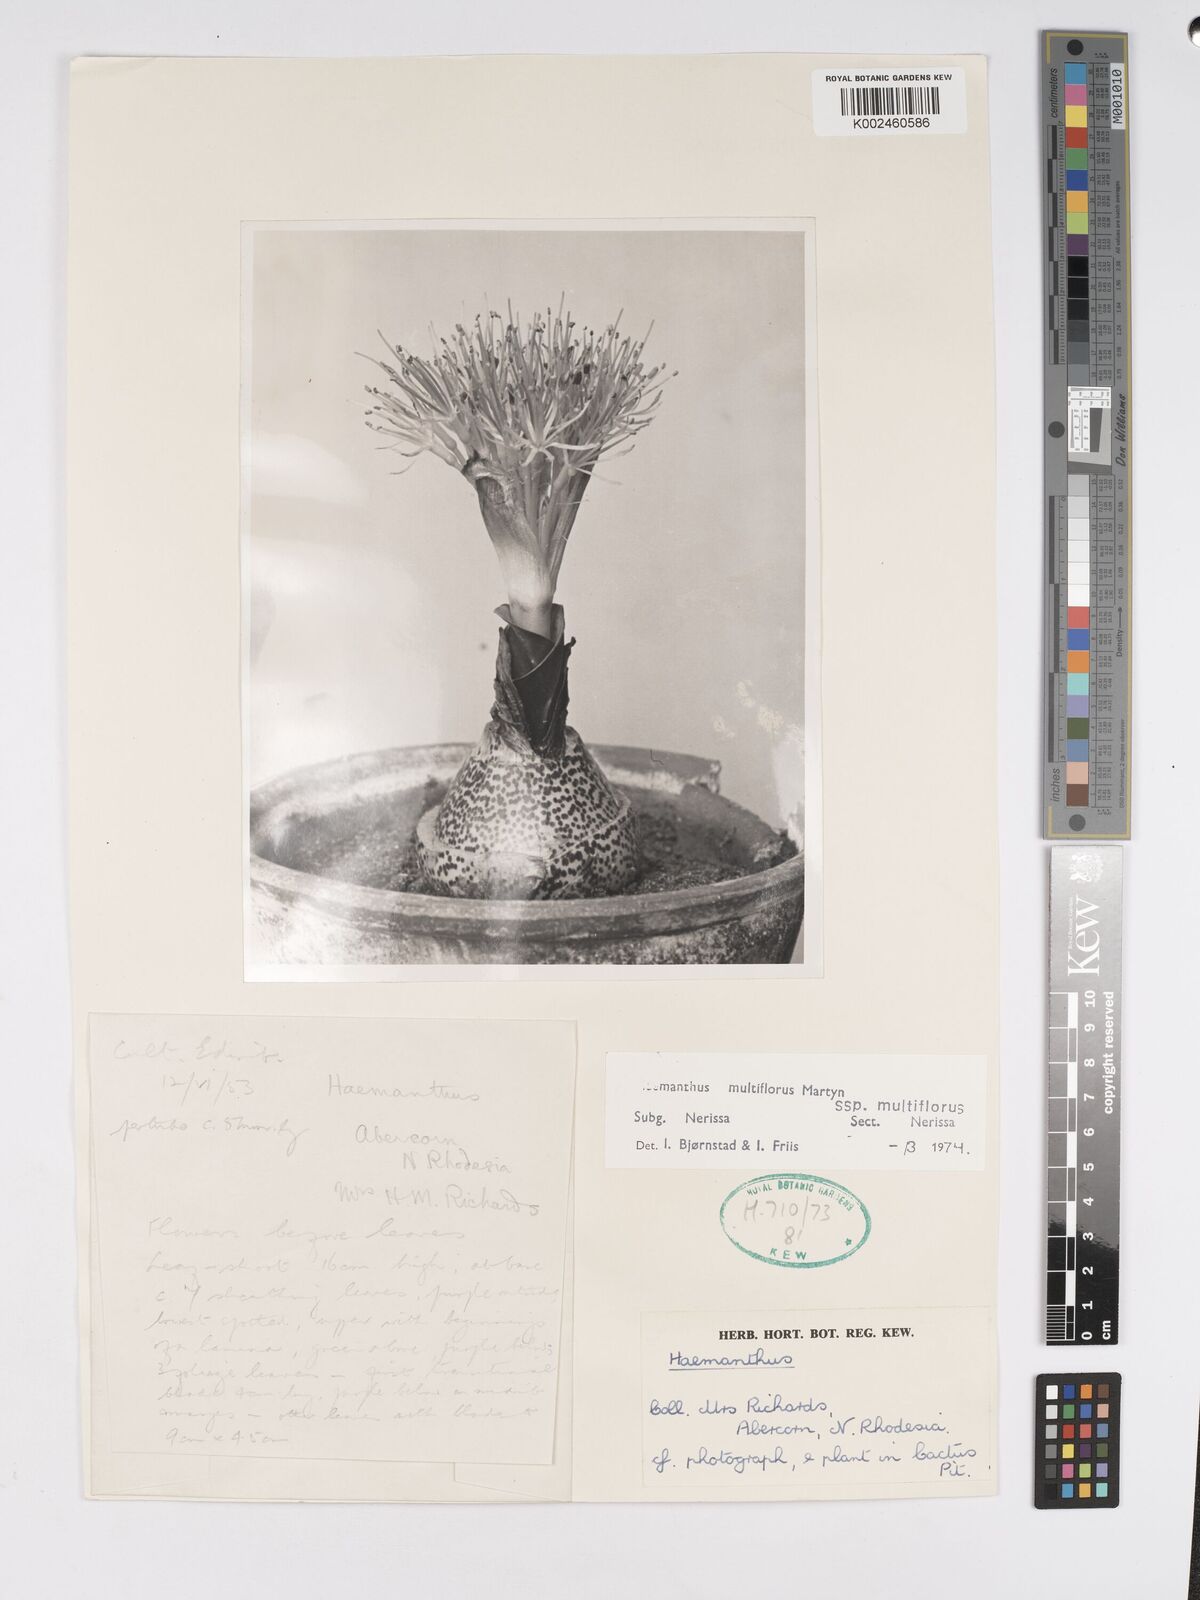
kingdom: Plantae
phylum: Tracheophyta
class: Liliopsida
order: Asparagales
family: Amaryllidaceae
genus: Scadoxus
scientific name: Scadoxus multiflorus
